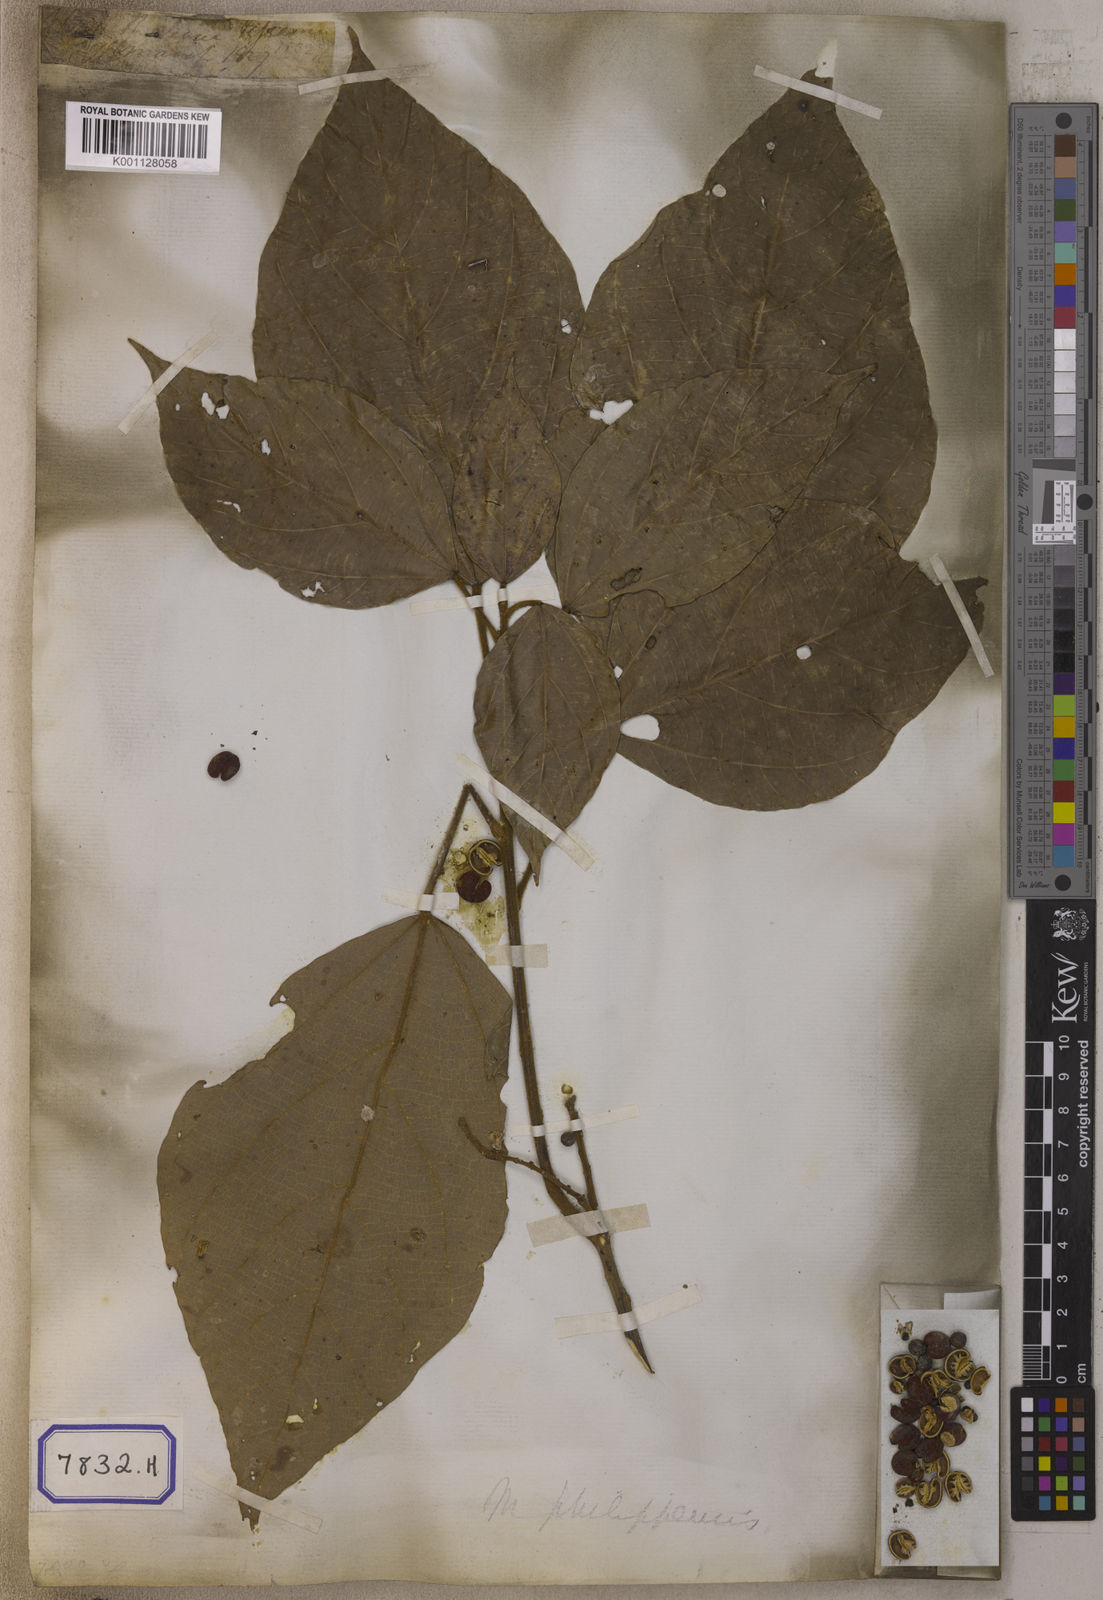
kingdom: Plantae
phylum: Tracheophyta
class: Magnoliopsida
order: Malpighiales
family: Euphorbiaceae
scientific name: Euphorbiaceae
